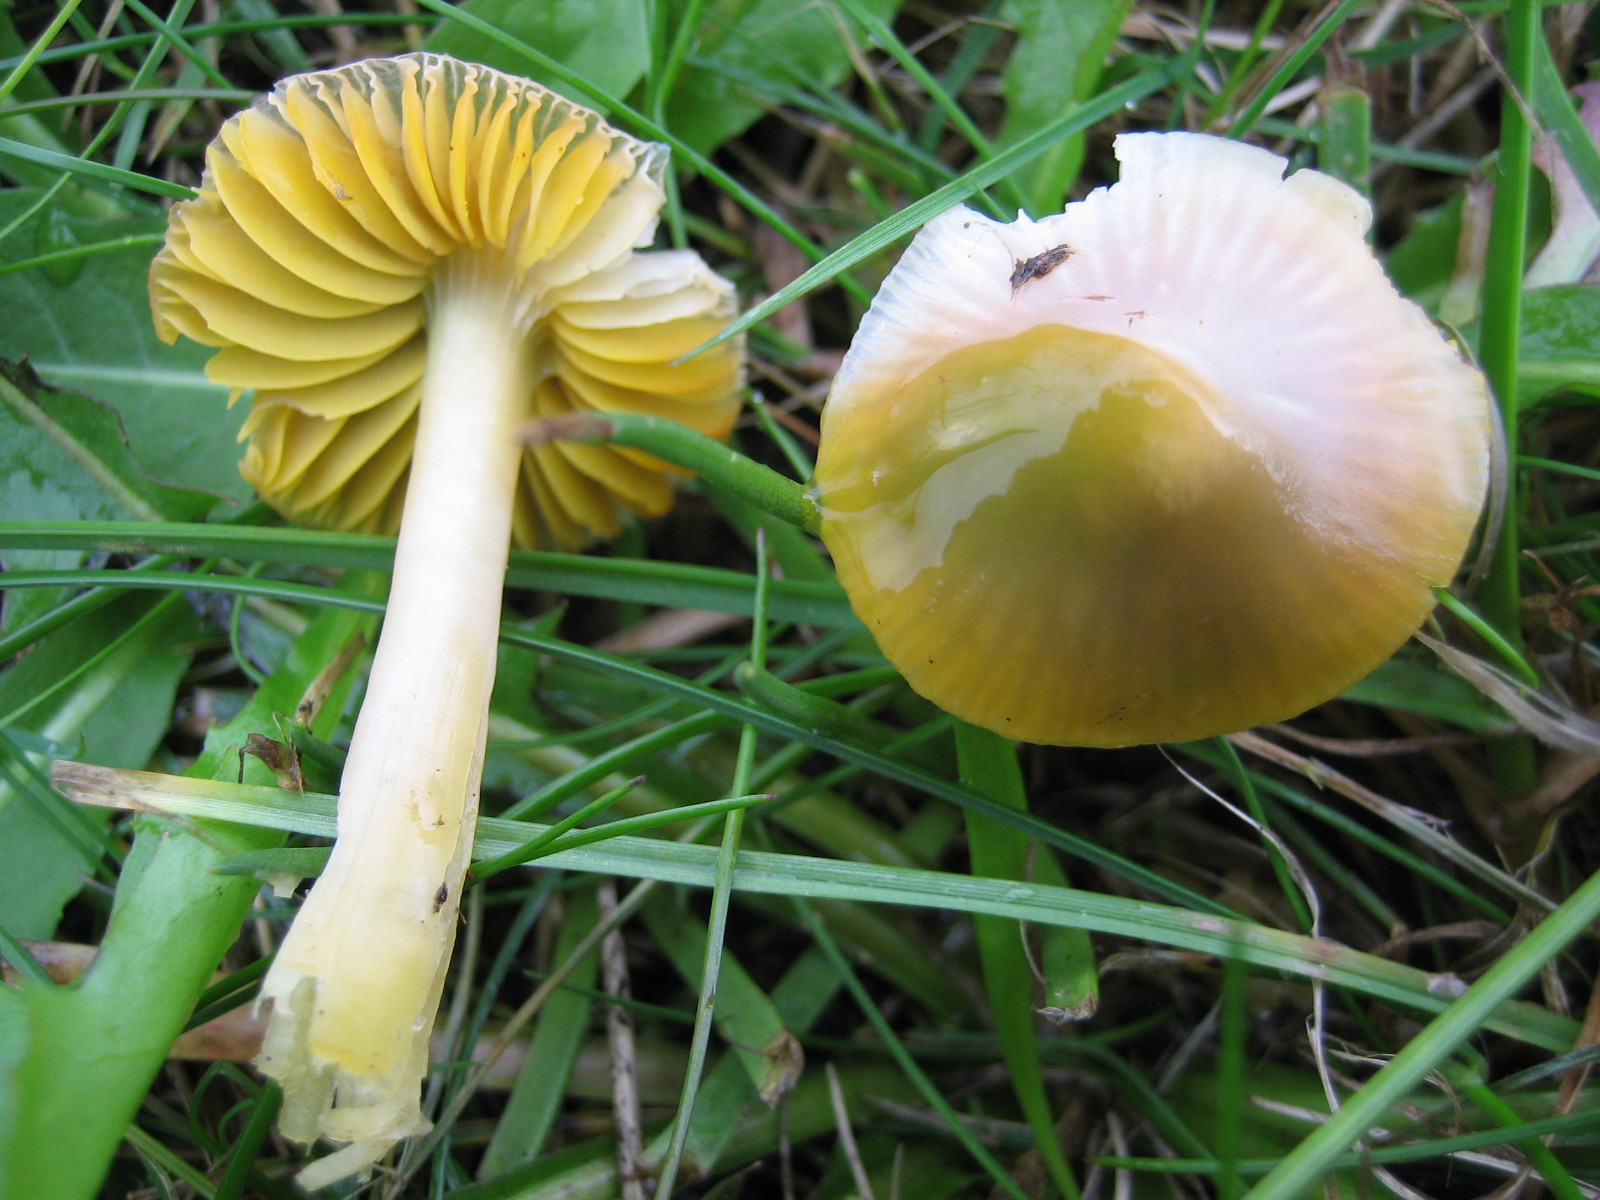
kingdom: Fungi
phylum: Basidiomycota
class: Agaricomycetes
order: Agaricales
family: Hygrophoraceae
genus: Gliophorus
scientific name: Gliophorus psittacinus
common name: papegøje-vokshat
